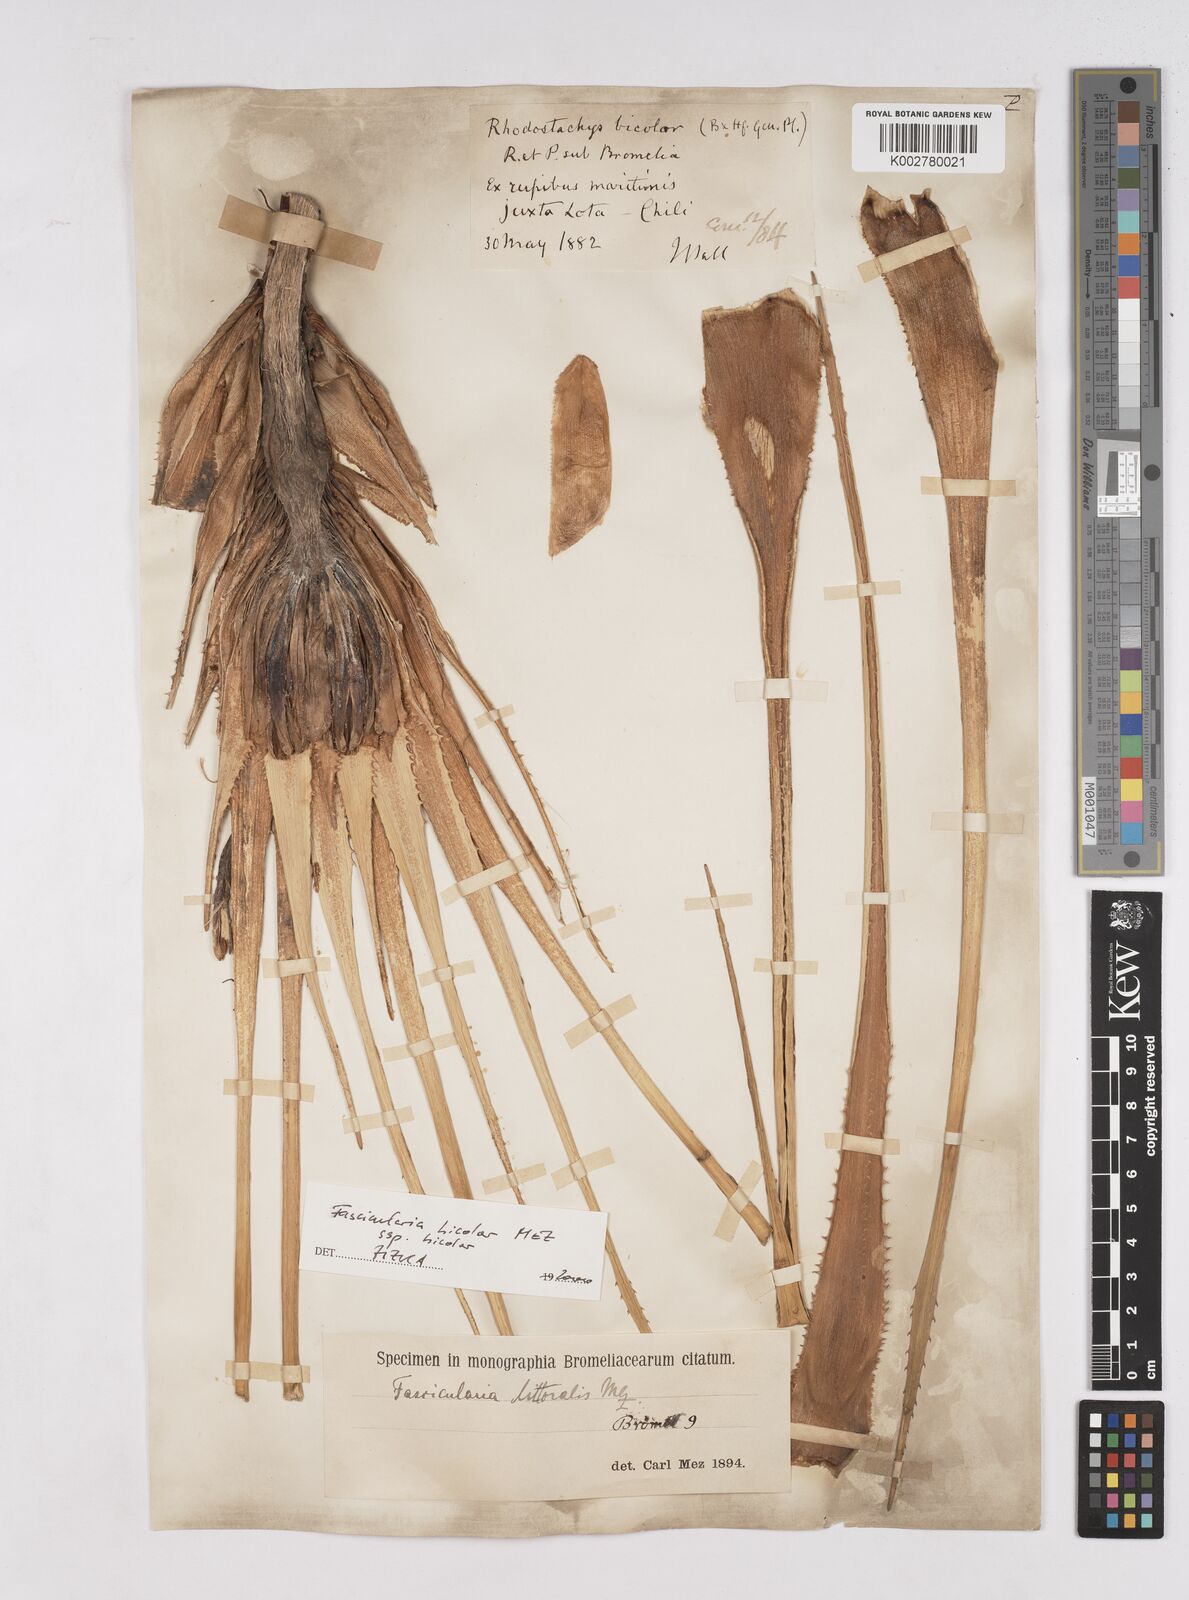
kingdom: Plantae
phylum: Tracheophyta
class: Liliopsida
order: Poales
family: Bromeliaceae
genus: Ochagavia
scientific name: Ochagavia litoralis
